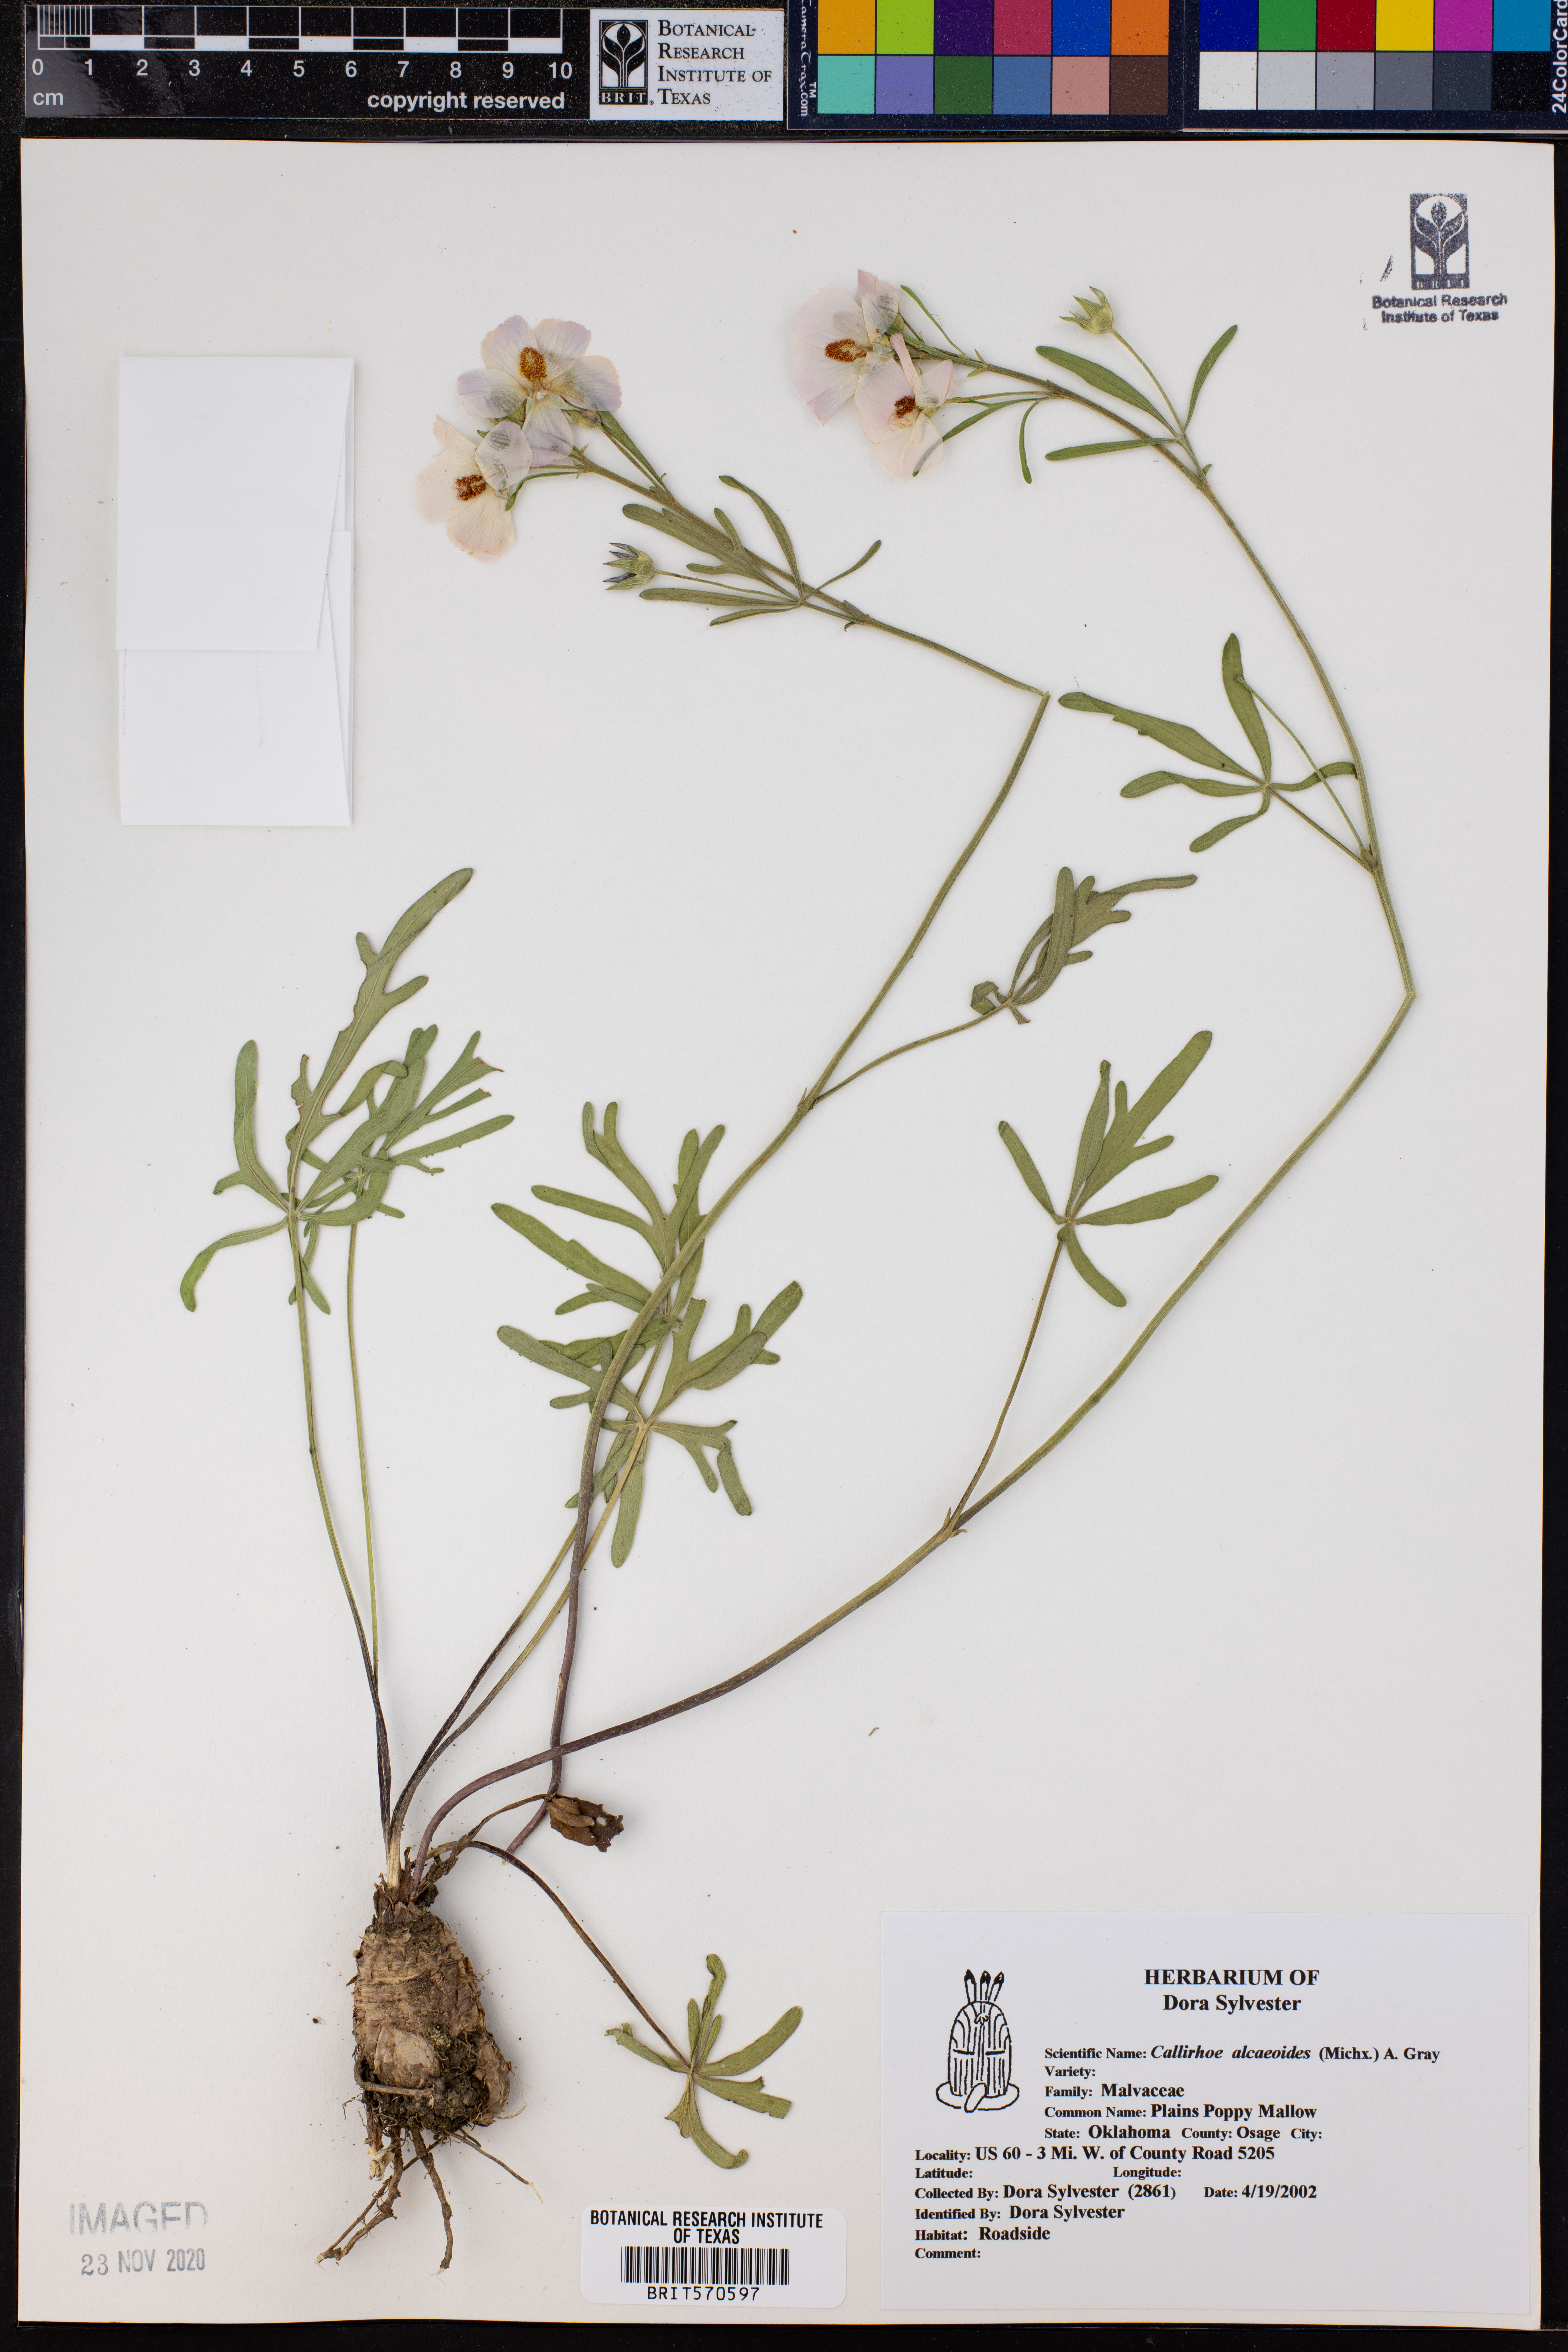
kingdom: Plantae
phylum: Tracheophyta
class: Magnoliopsida
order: Malvales
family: Malvaceae
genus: Callirhoe
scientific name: Callirhoe alcaeoides
